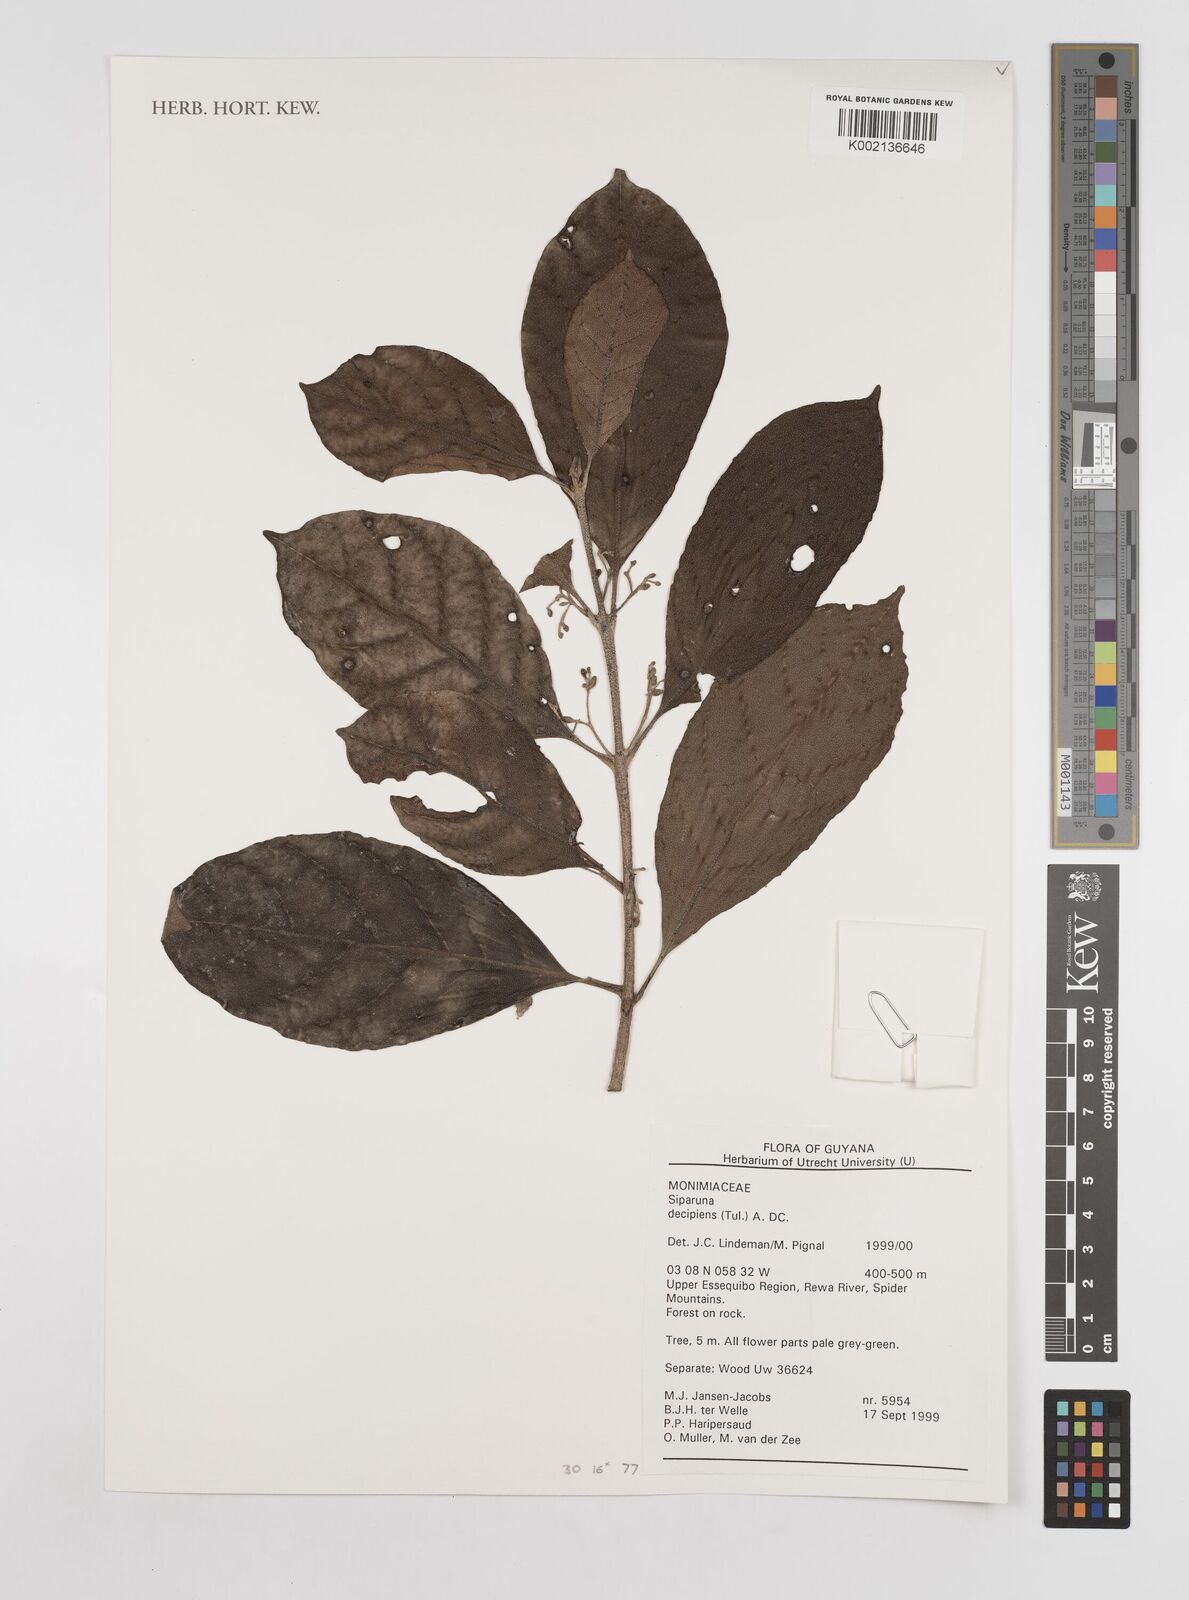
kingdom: Plantae
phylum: Tracheophyta
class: Magnoliopsida
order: Laurales
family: Siparunaceae
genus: Siparuna
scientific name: Siparuna decipiens
